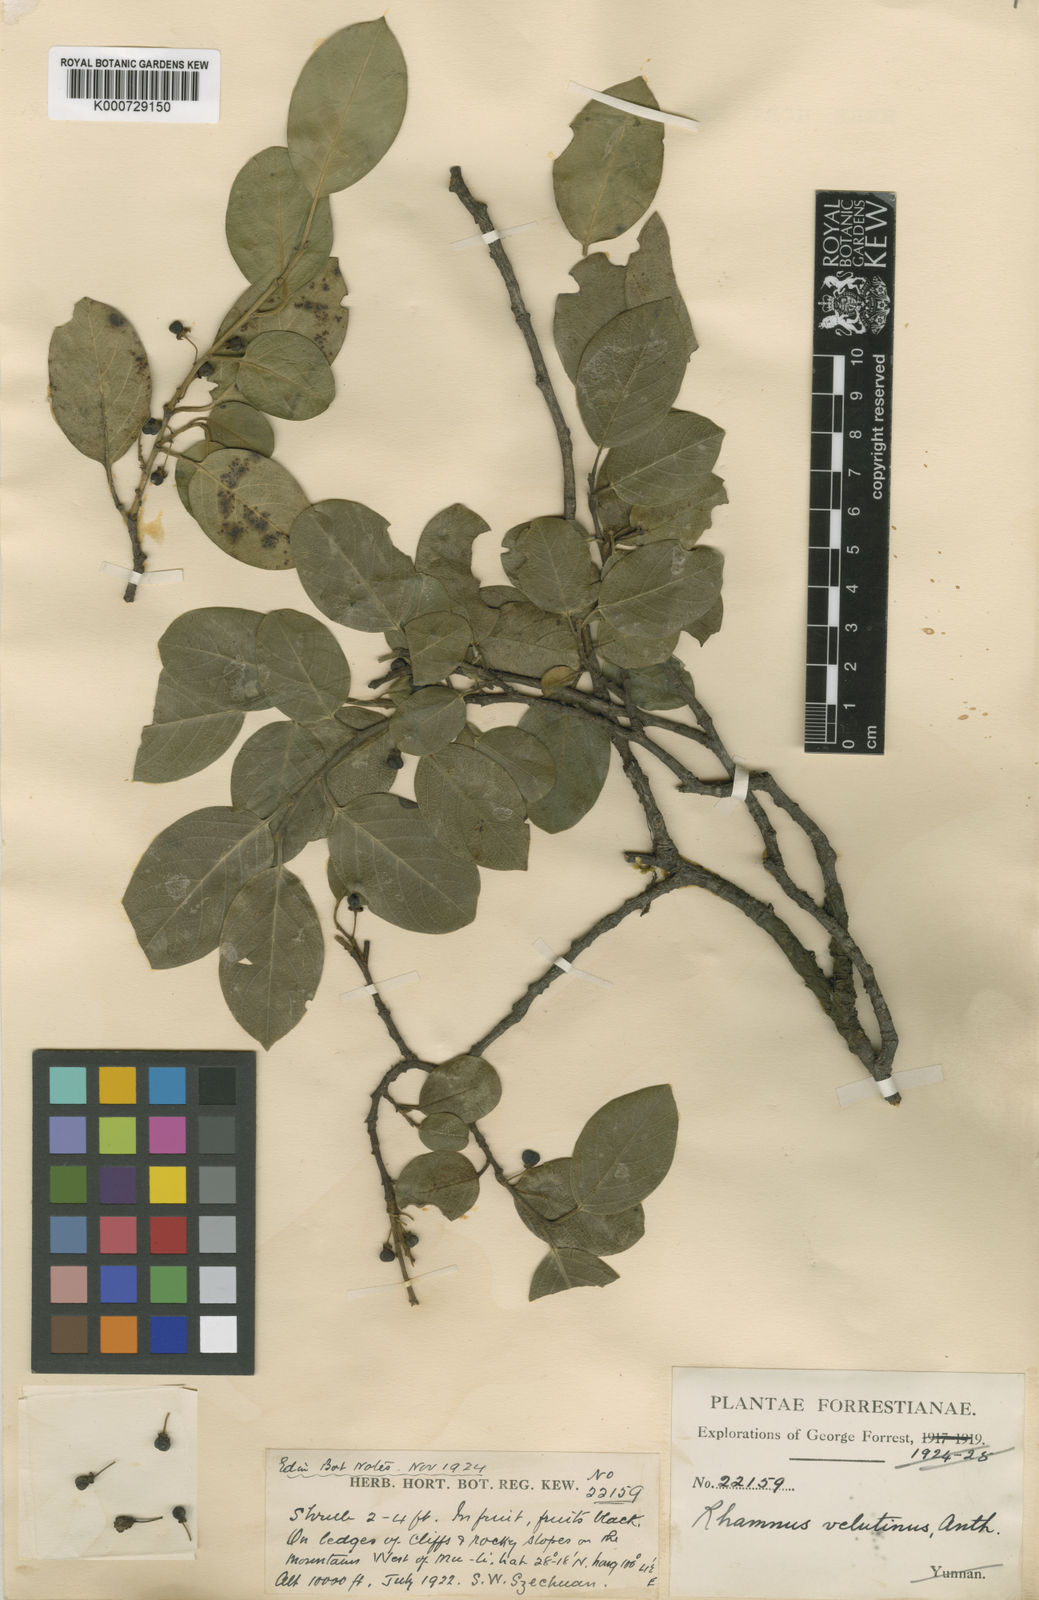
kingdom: Plantae
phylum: Tracheophyta
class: Magnoliopsida
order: Rosales
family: Rhamnaceae
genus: Rhamnus
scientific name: Rhamnus velutina
